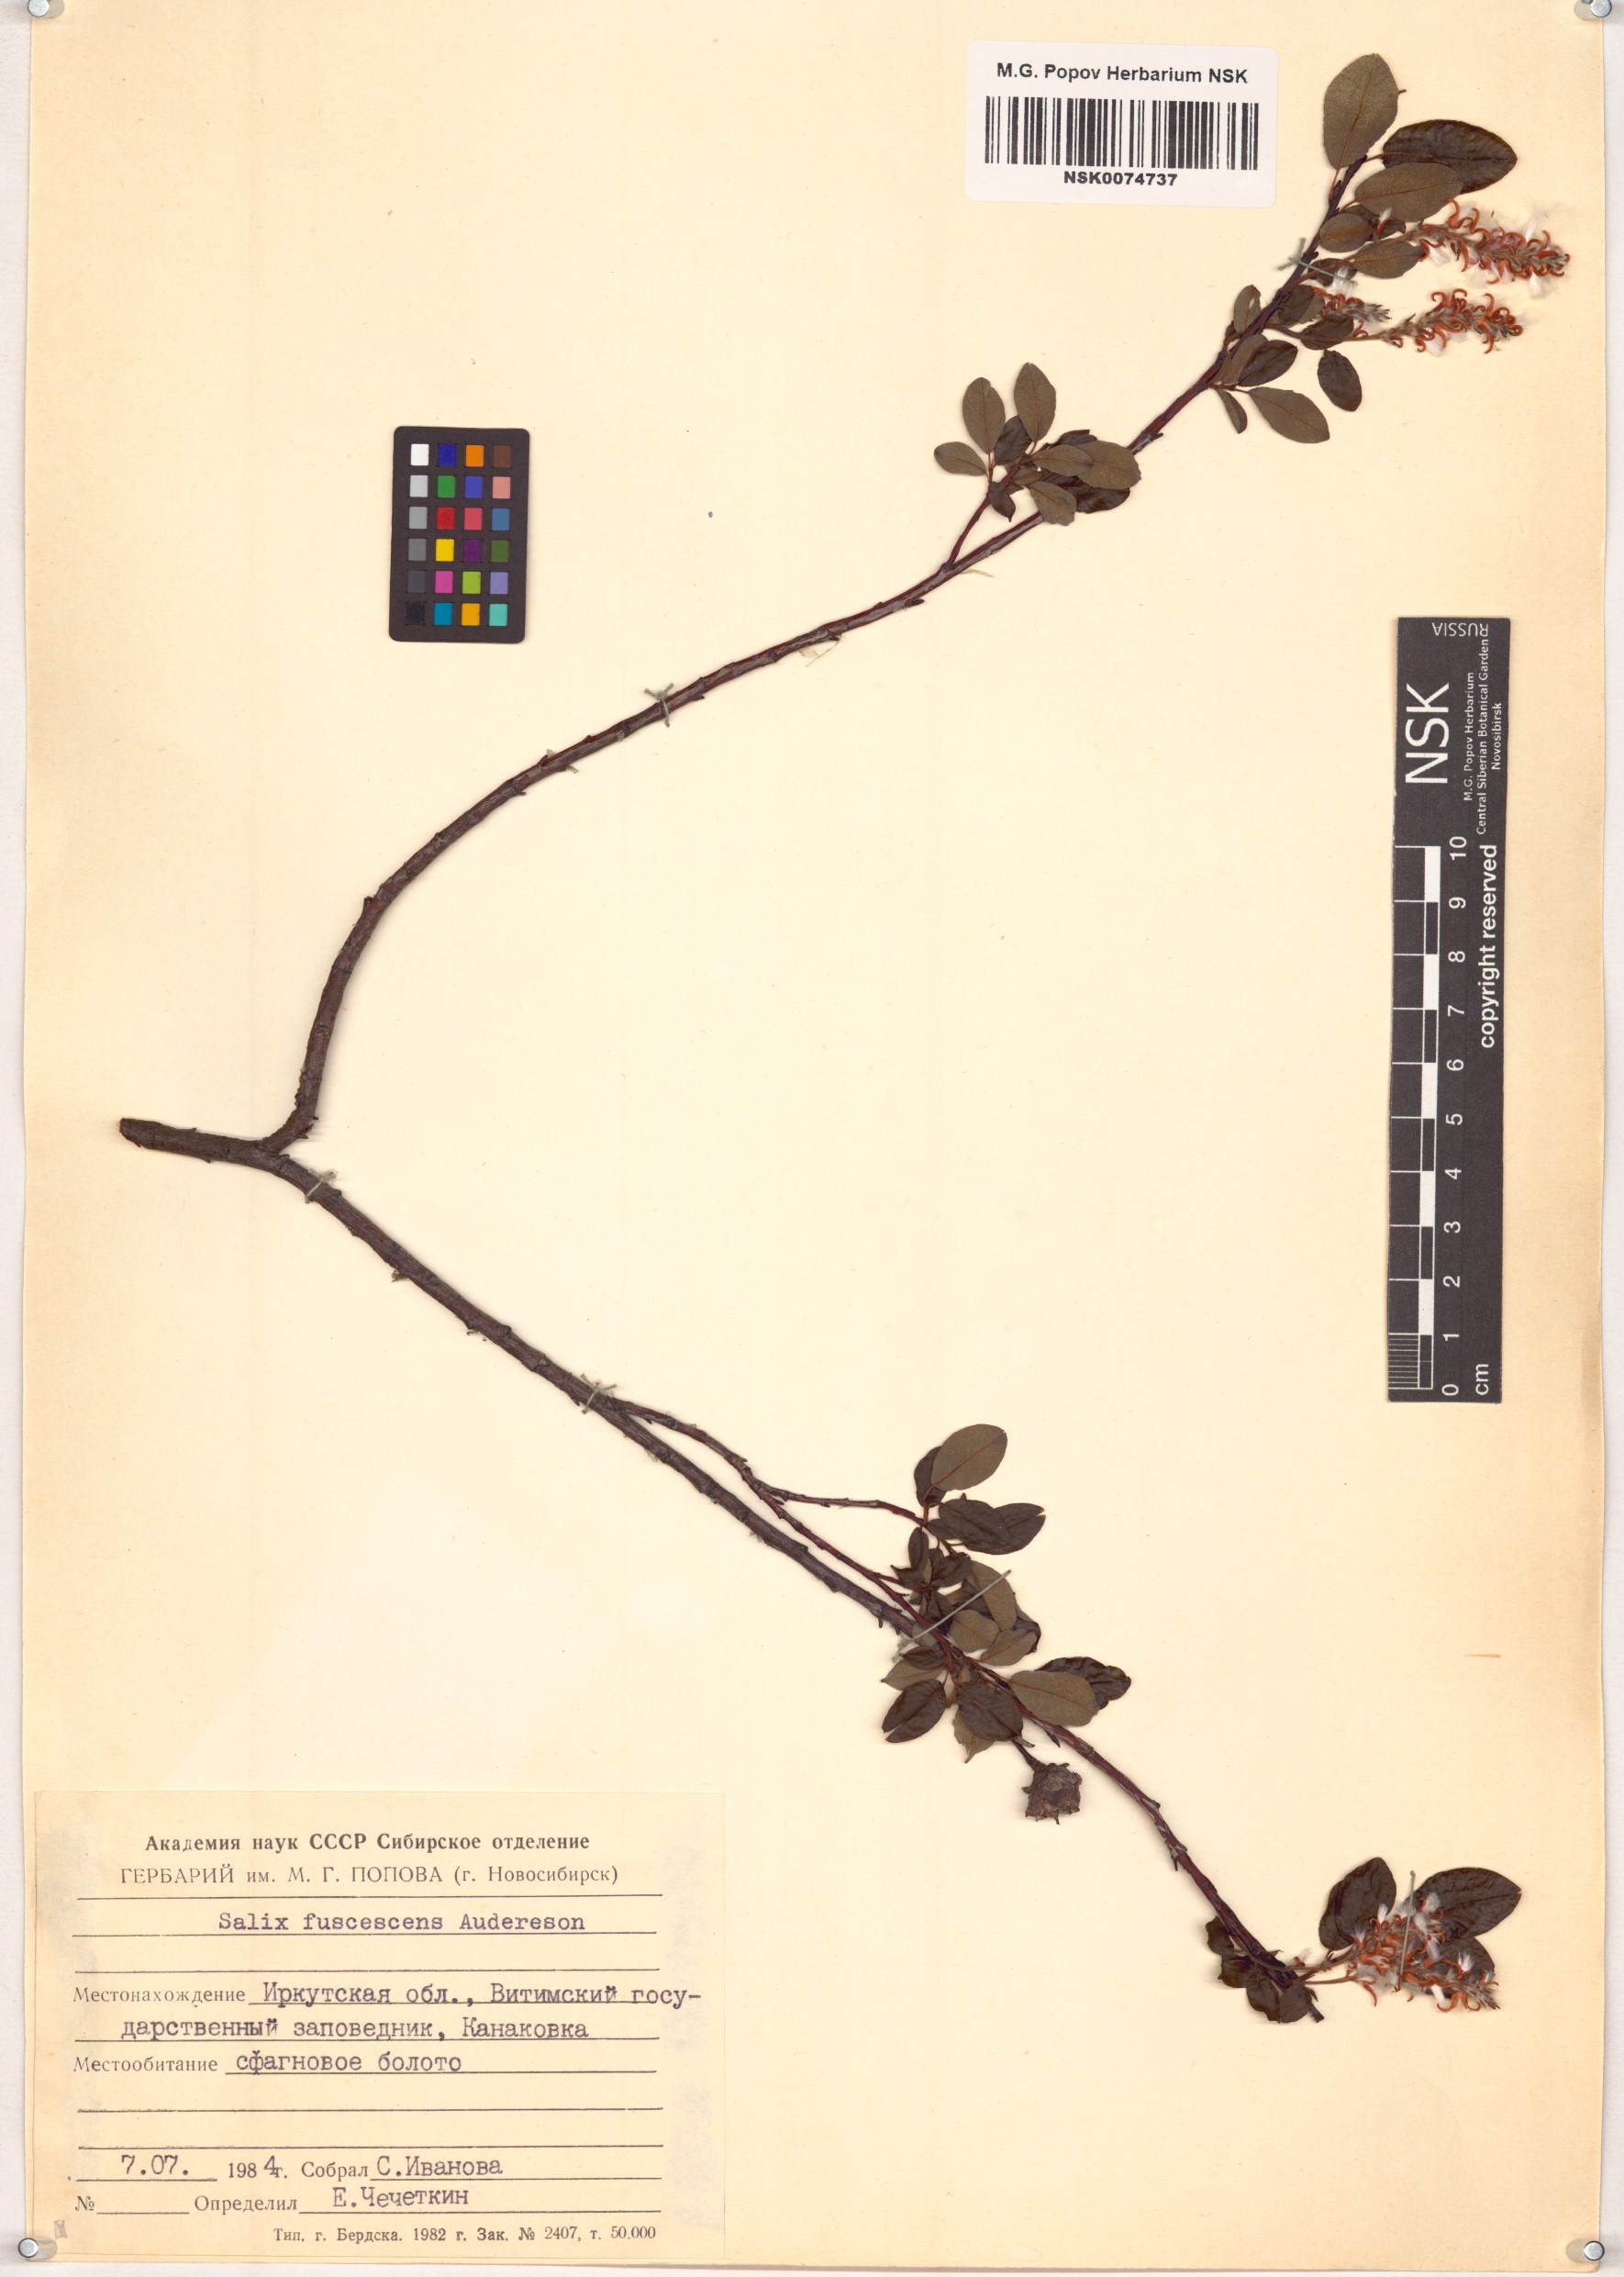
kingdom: Plantae
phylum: Tracheophyta
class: Magnoliopsida
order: Malpighiales
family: Salicaceae
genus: Salix
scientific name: Salix fuscescens
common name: Brownish willow
